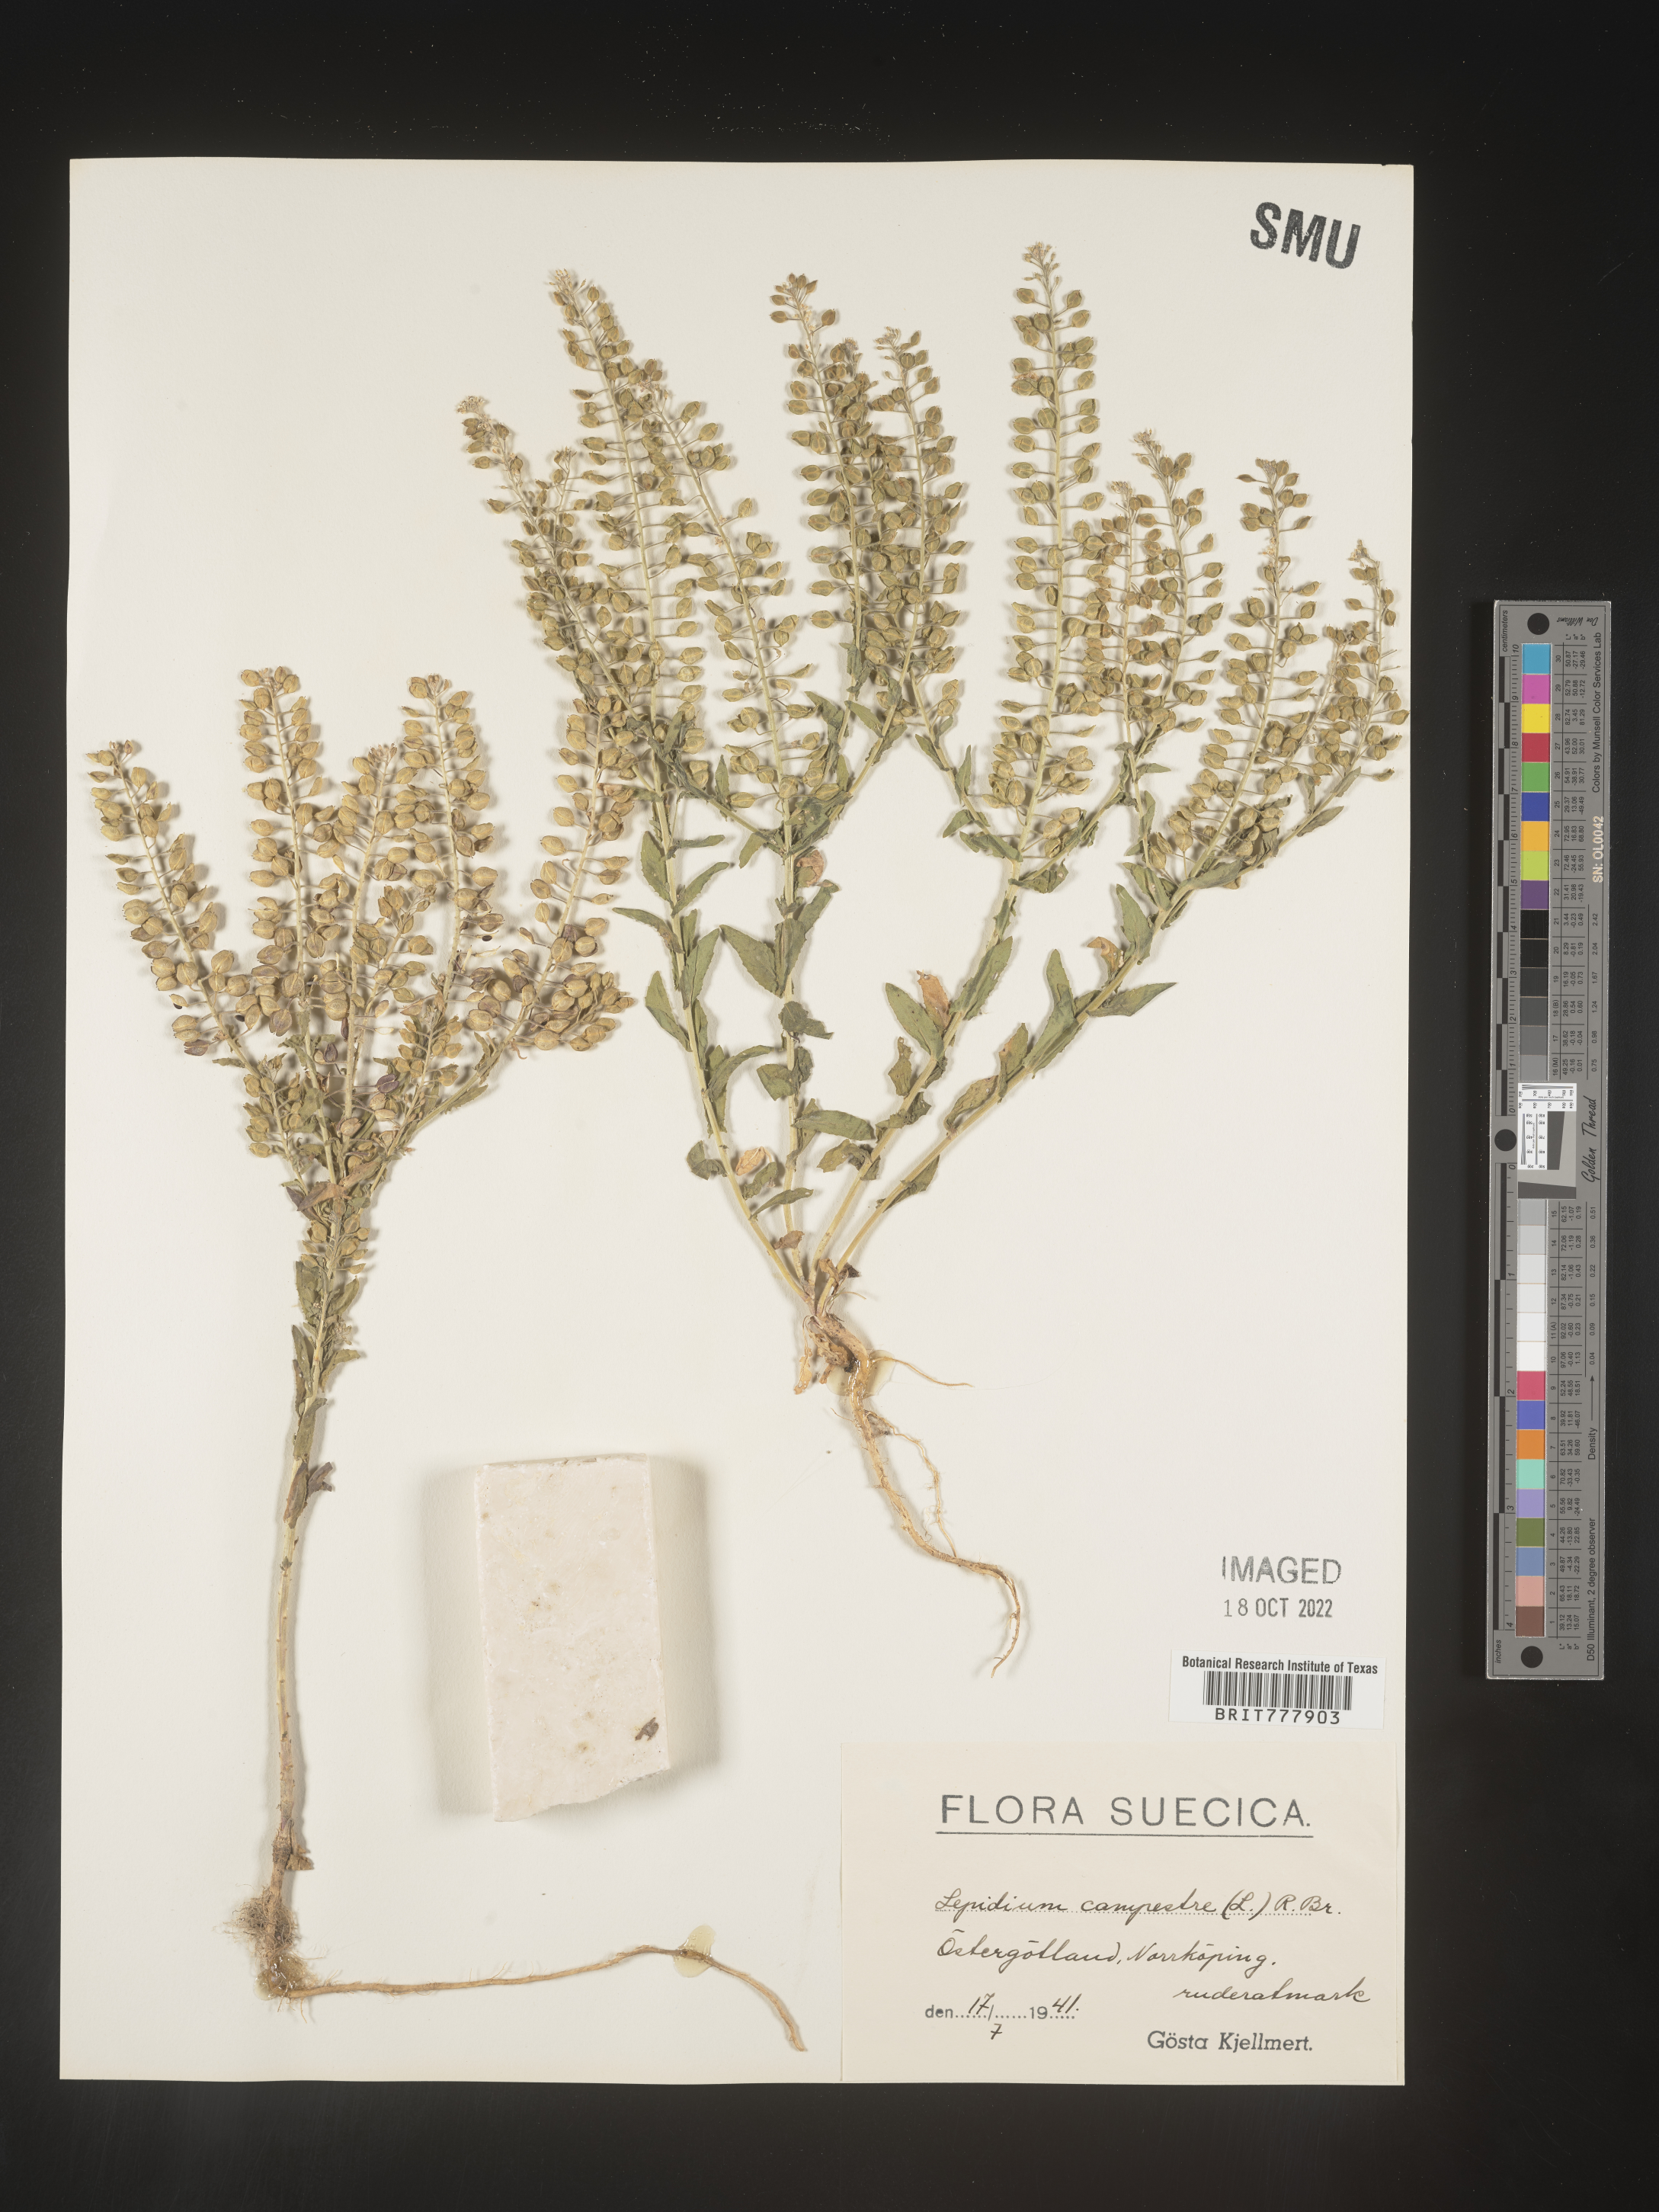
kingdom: Plantae
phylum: Tracheophyta
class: Magnoliopsida
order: Brassicales
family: Brassicaceae
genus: Lepidium
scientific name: Lepidium
